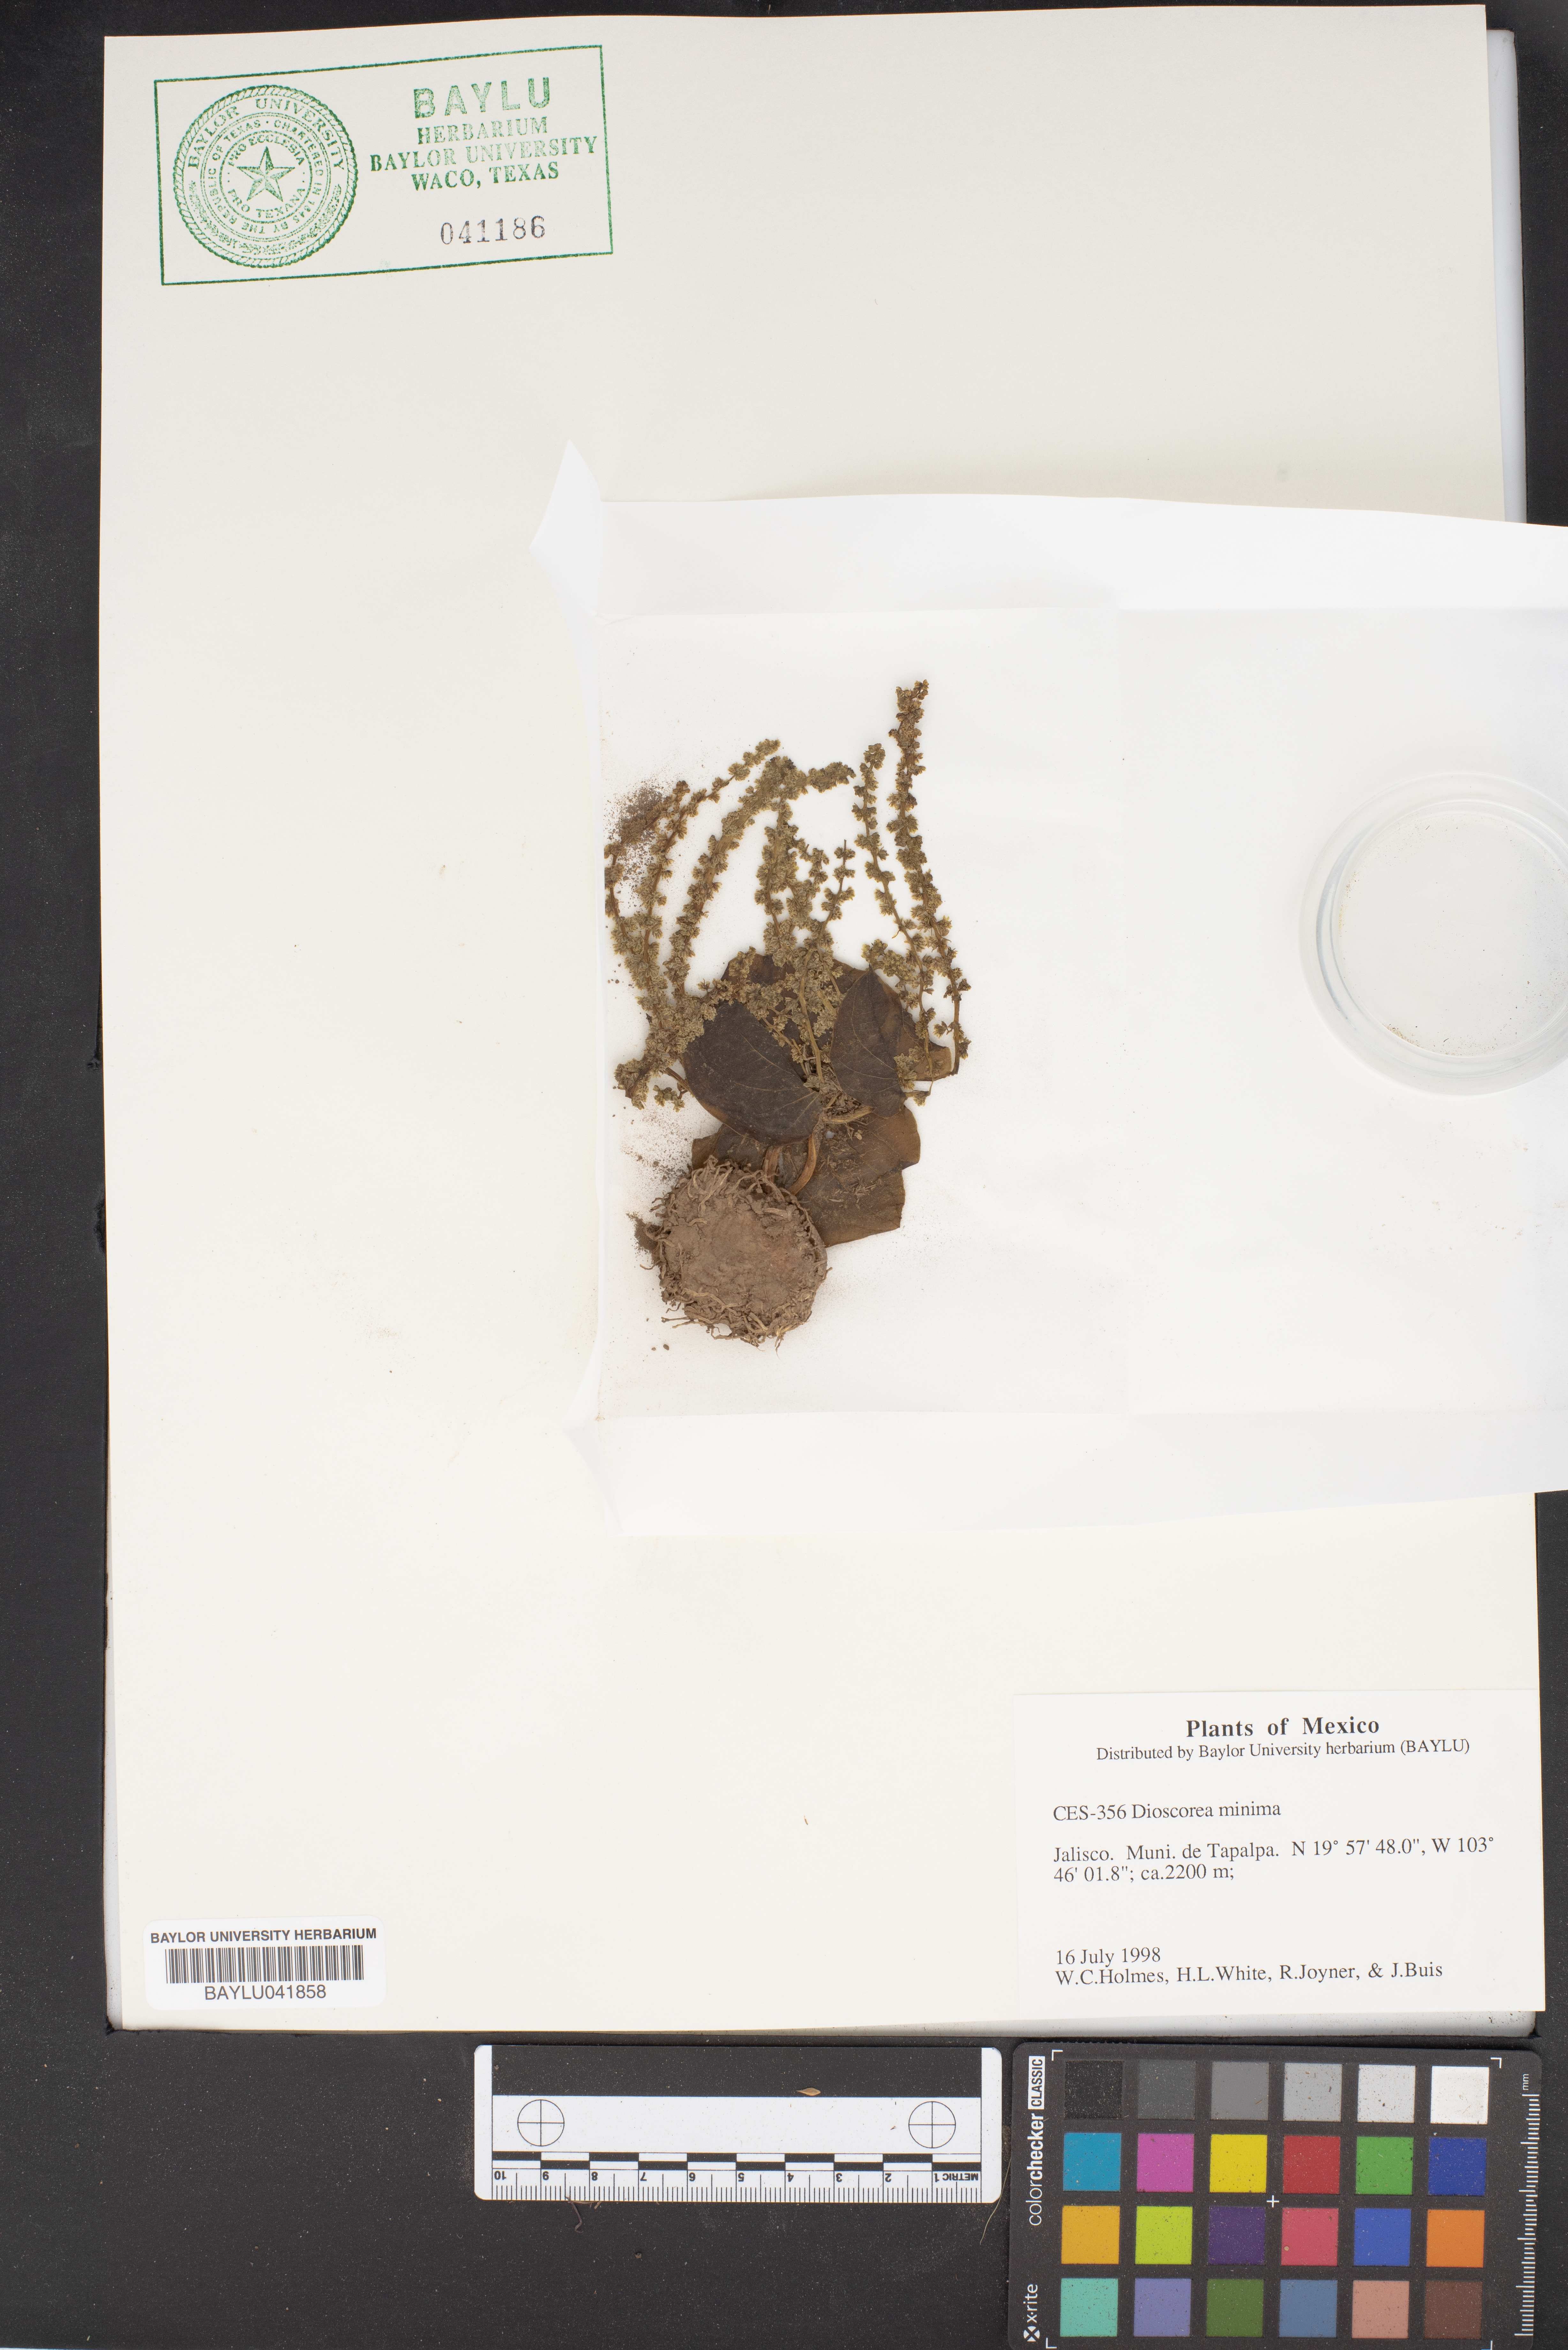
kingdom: Plantae
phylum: Tracheophyta
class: Liliopsida
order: Dioscoreales
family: Dioscoreaceae
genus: Dioscorea
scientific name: Dioscorea minima
